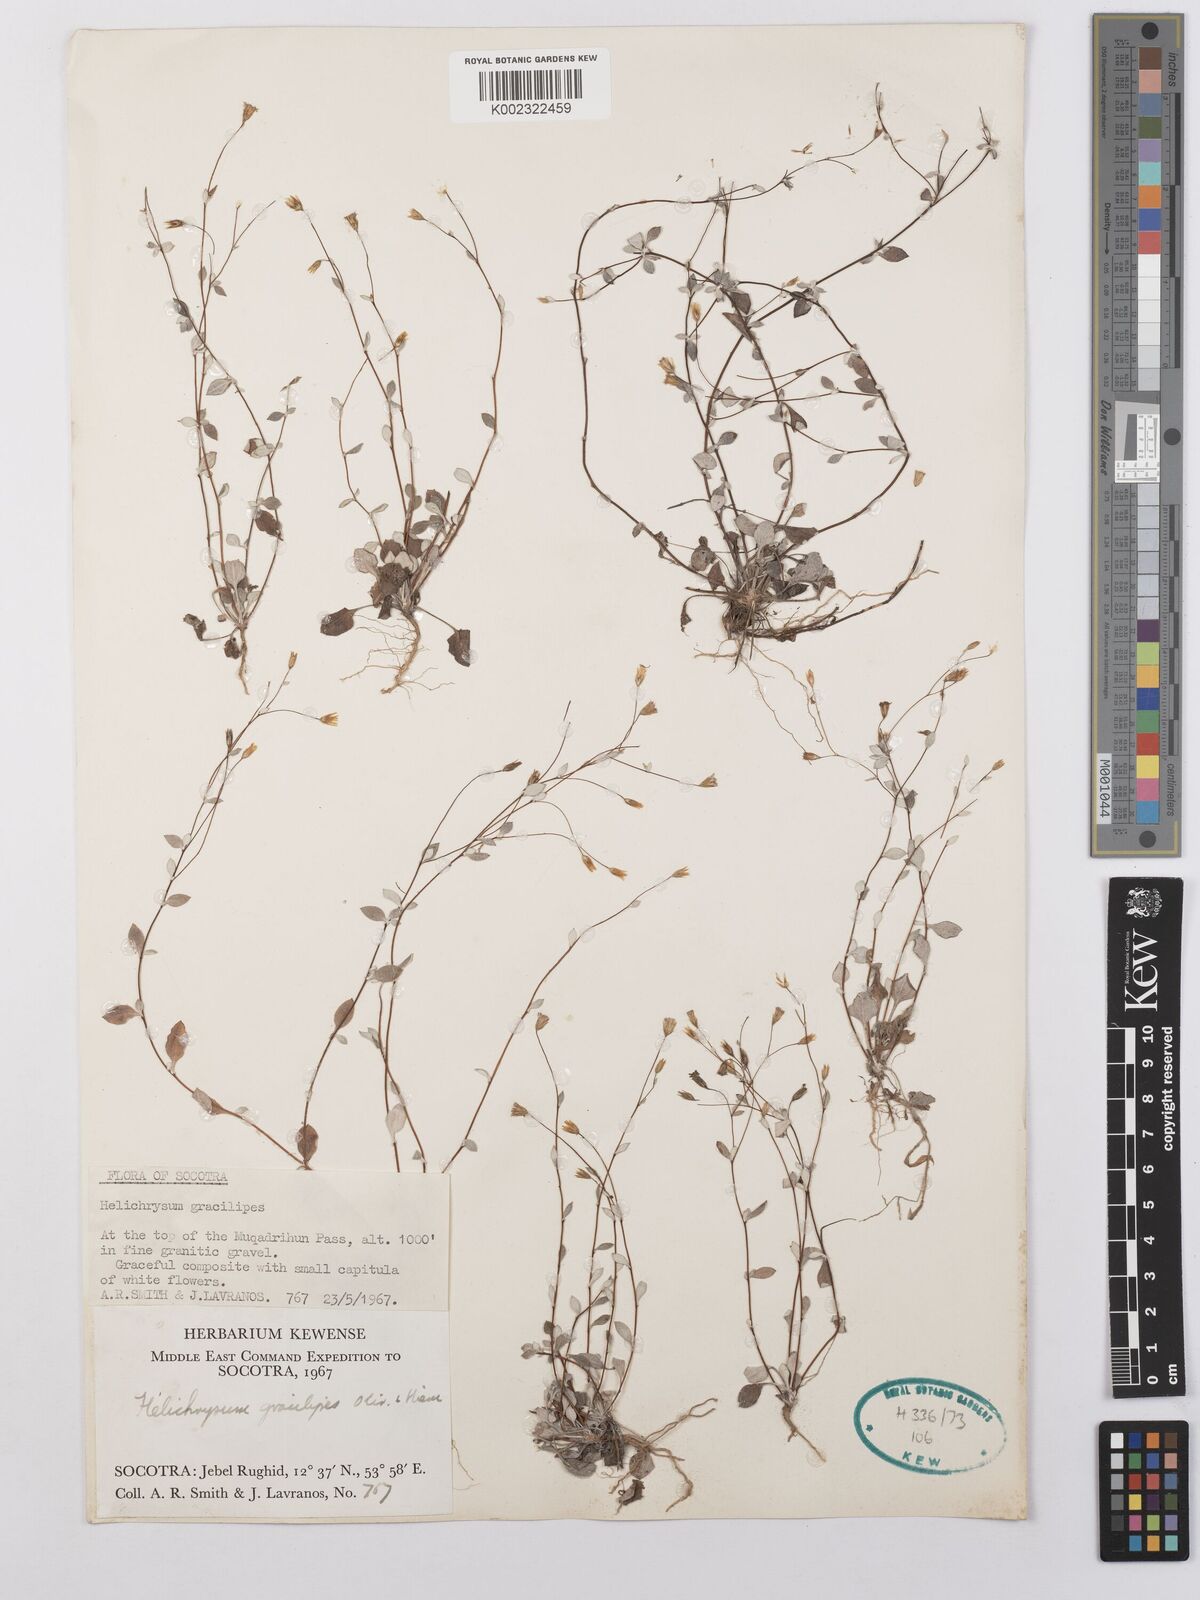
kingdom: Plantae
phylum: Tracheophyta
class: Magnoliopsida
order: Asterales
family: Asteraceae
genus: Libinhania
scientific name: Libinhania gracilipes
